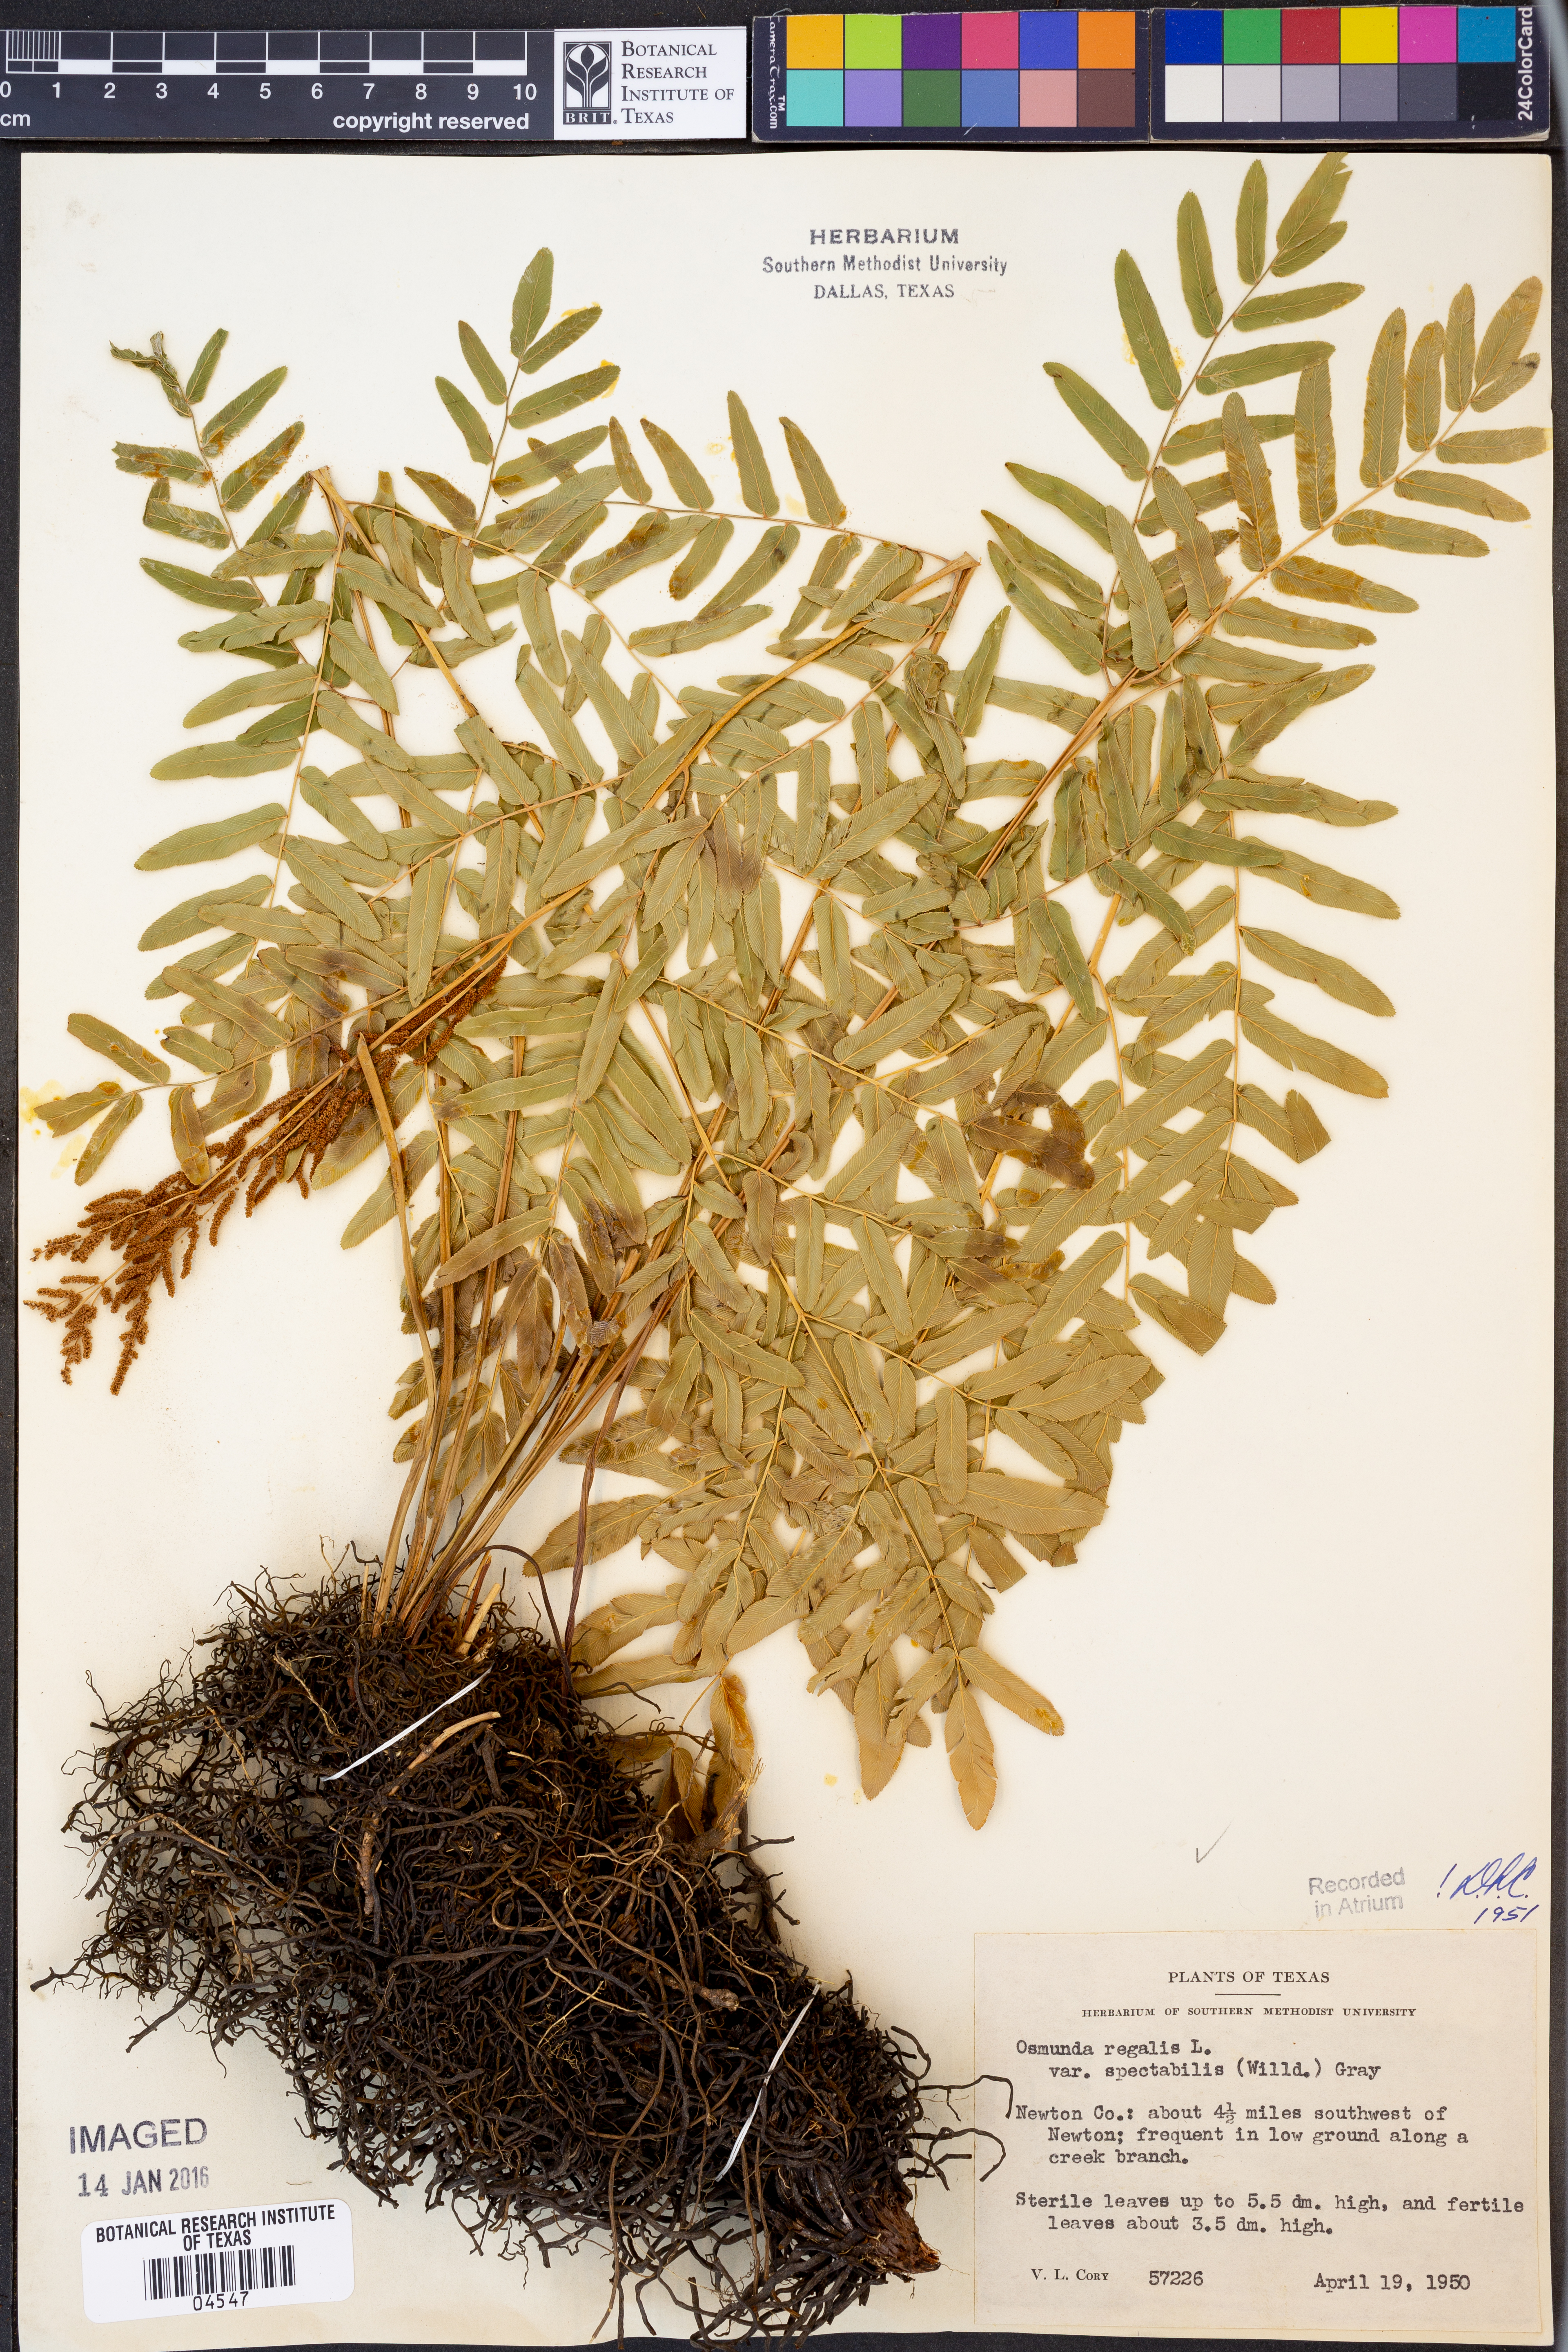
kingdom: Plantae
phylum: Tracheophyta
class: Polypodiopsida
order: Osmundales
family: Osmundaceae
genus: Osmunda
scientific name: Osmunda spectabilis
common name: American royal fern
